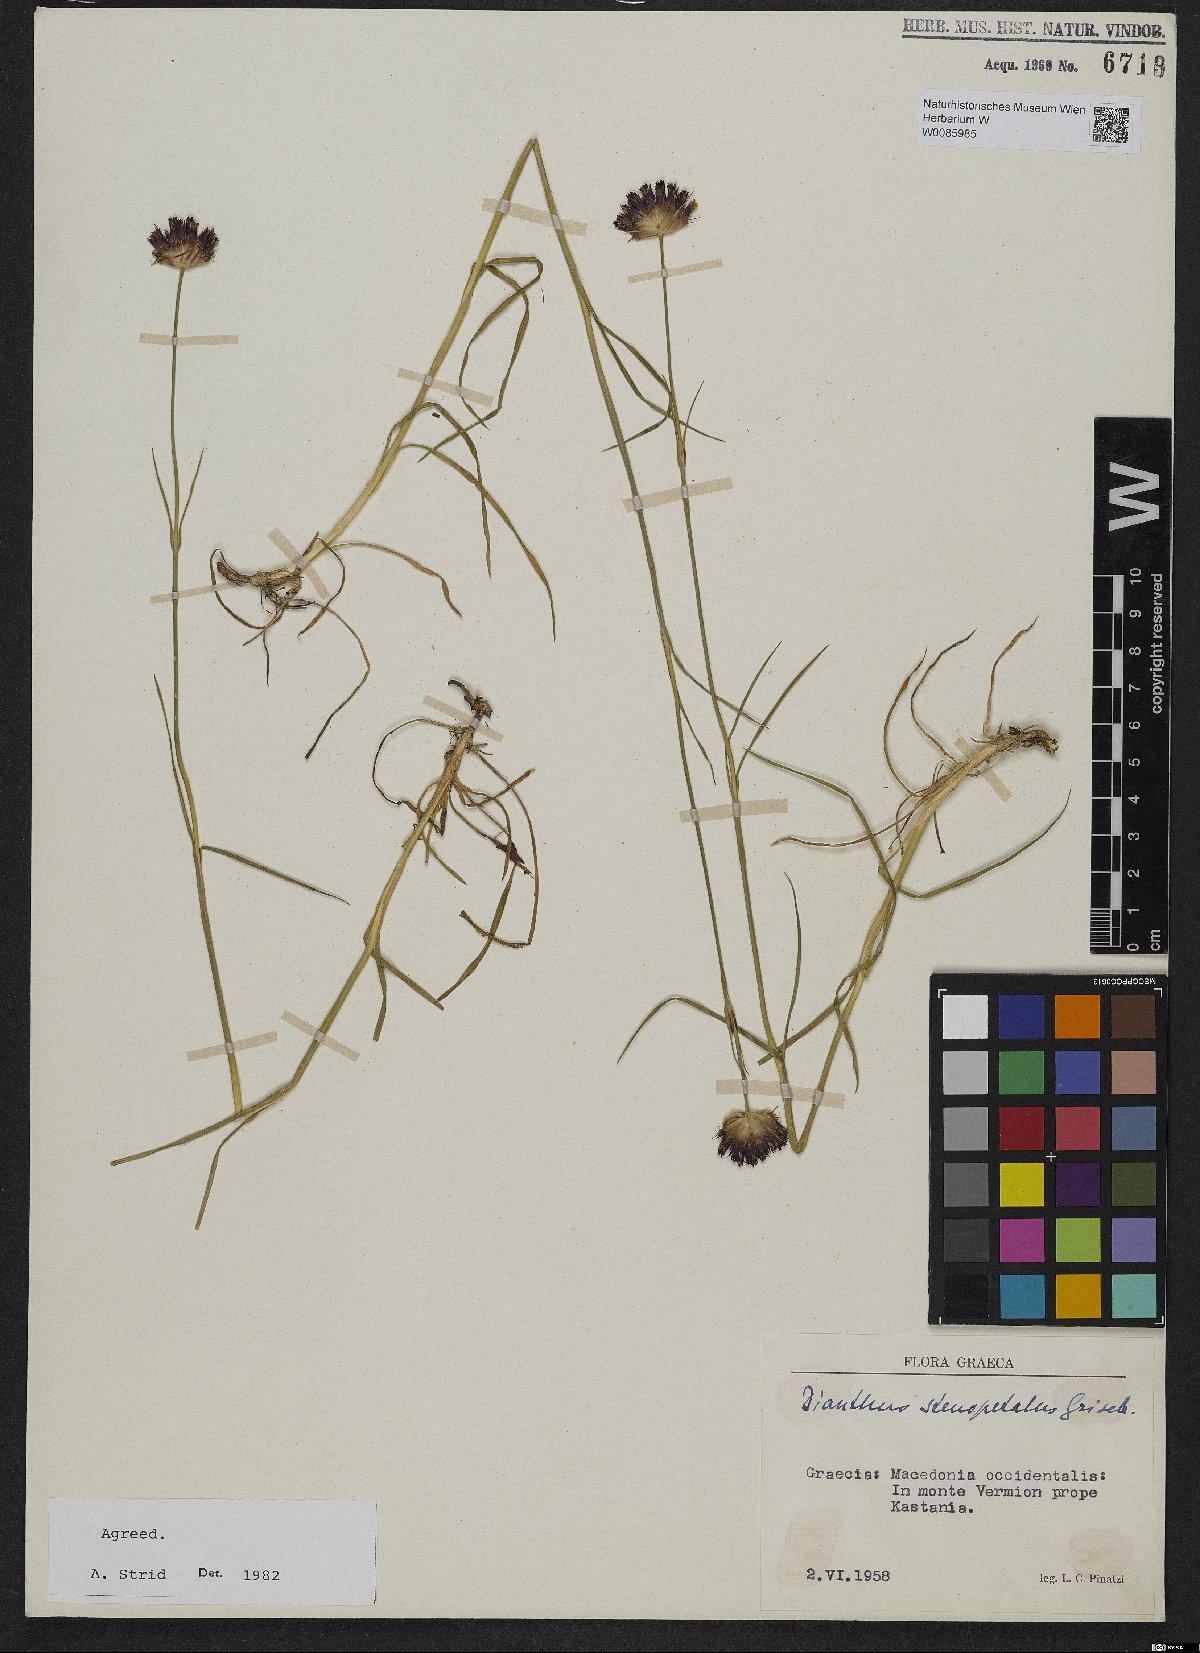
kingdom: Plantae
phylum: Tracheophyta
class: Magnoliopsida
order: Caryophyllales
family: Caryophyllaceae
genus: Dianthus
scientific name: Dianthus stenopetalus
